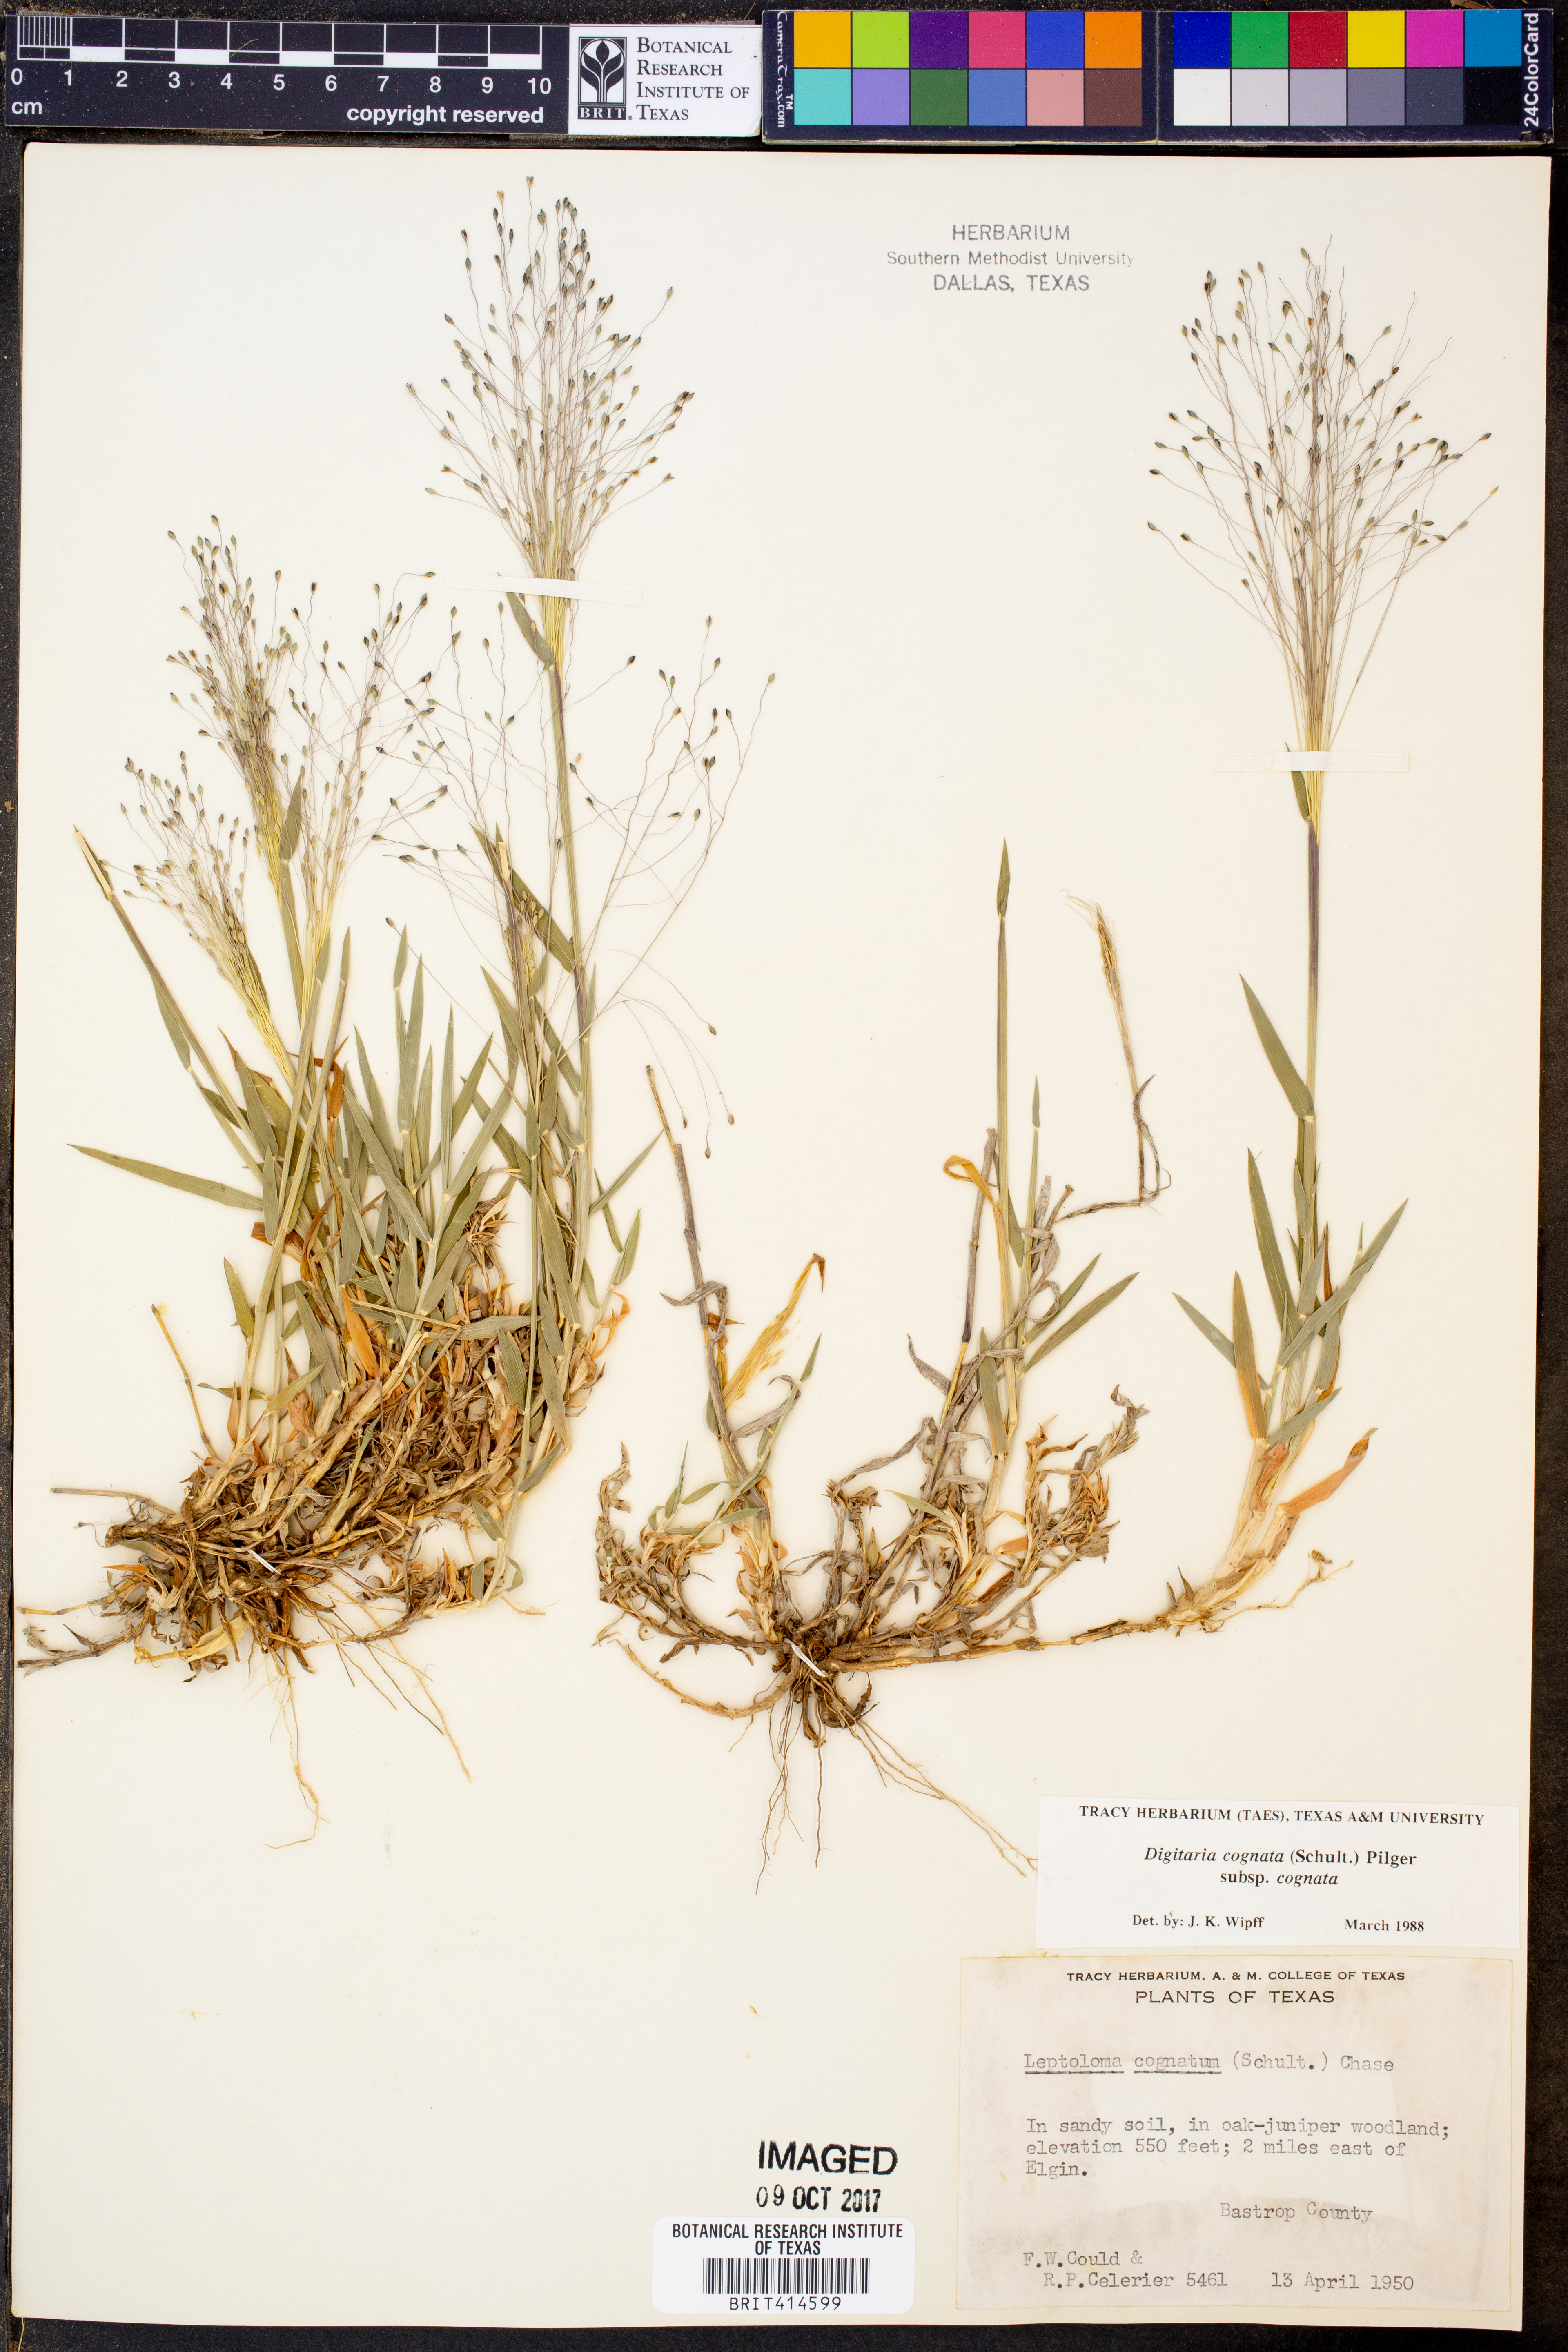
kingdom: Plantae
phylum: Tracheophyta
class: Liliopsida
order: Poales
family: Poaceae
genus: Digitaria
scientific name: Digitaria cognata
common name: Fall witchgrass
